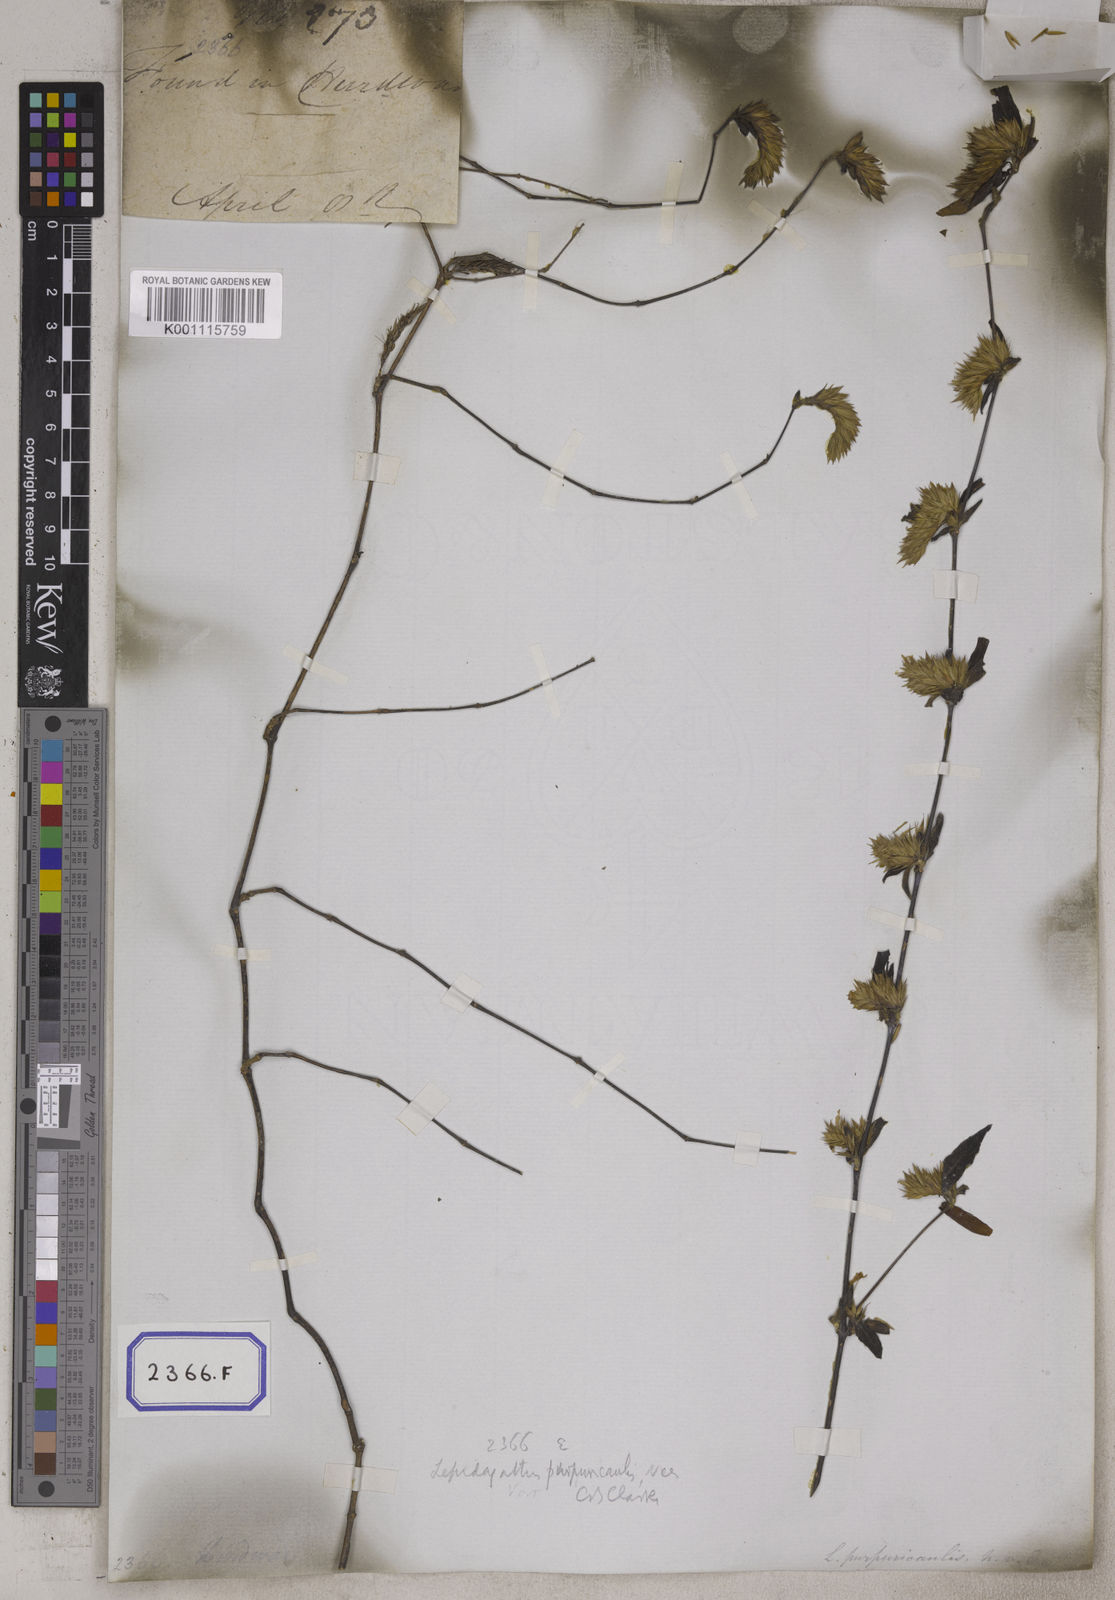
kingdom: Plantae
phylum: Tracheophyta
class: Magnoliopsida
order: Lamiales
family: Acanthaceae
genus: Lepidagathis
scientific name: Lepidagathis purpuricaulis
